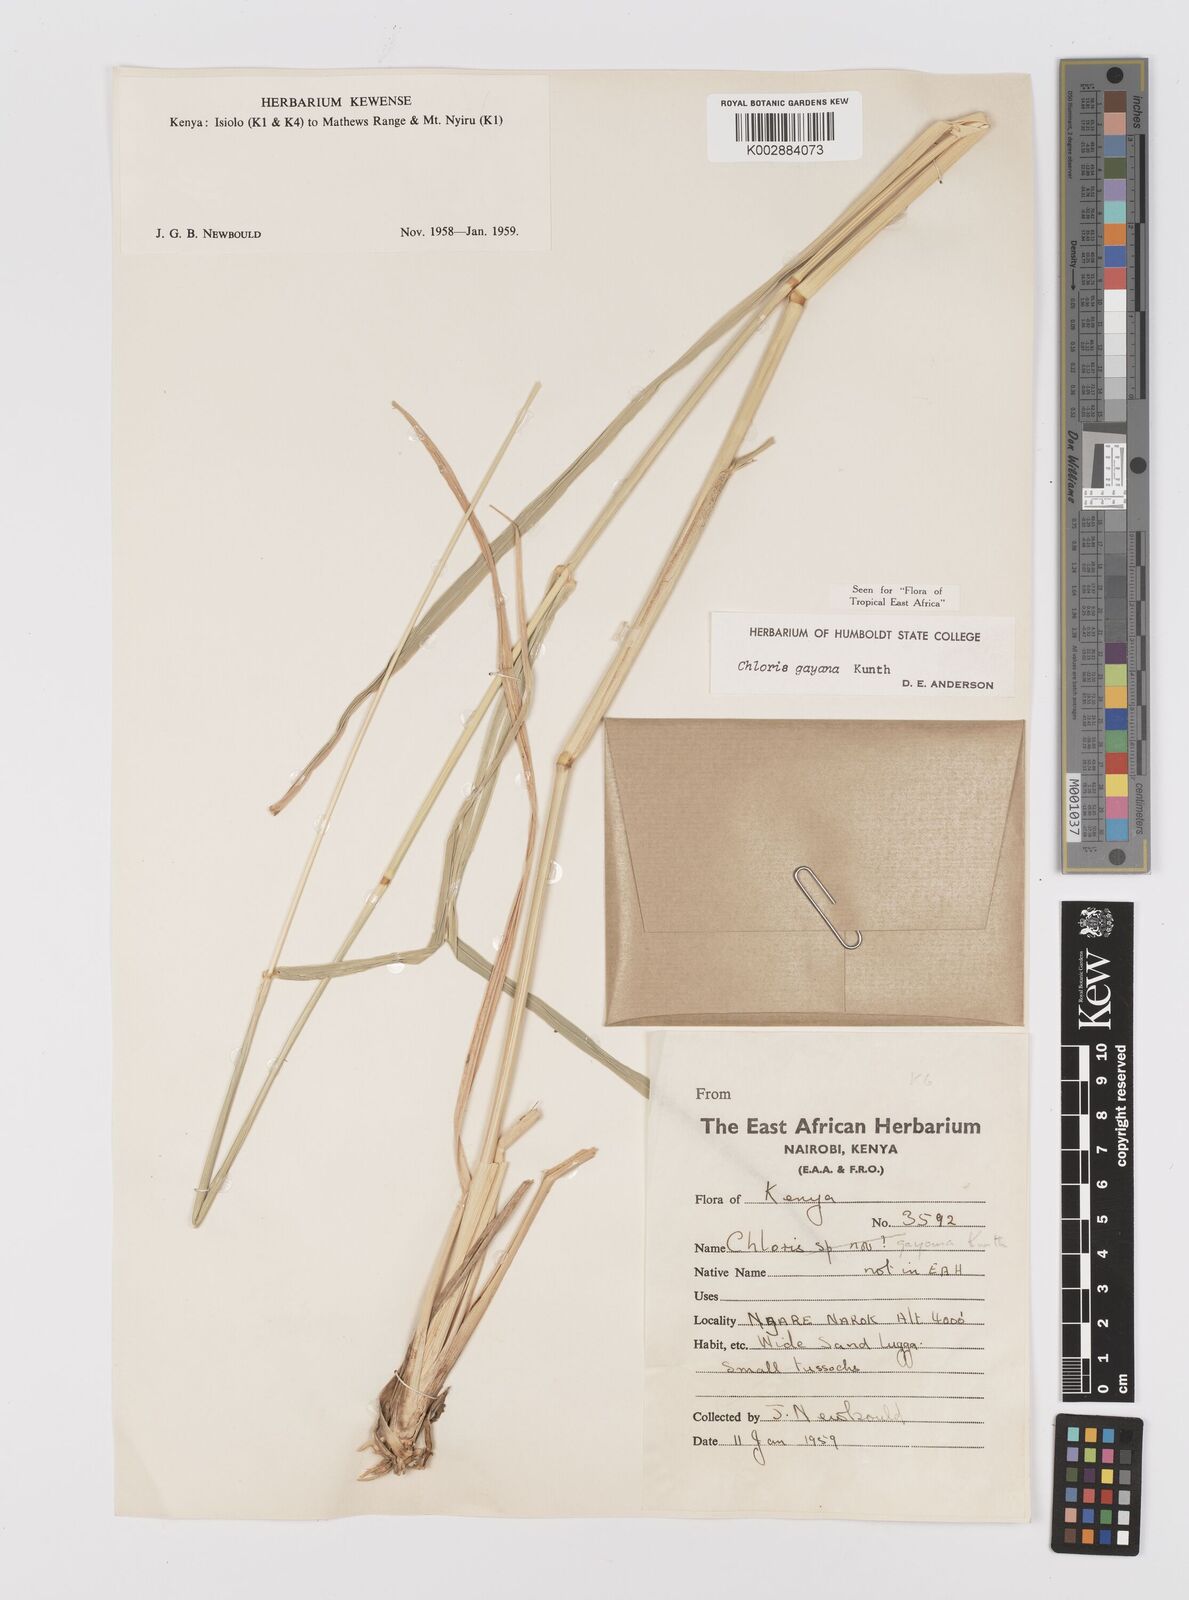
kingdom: Plantae
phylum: Tracheophyta
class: Liliopsida
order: Poales
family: Poaceae
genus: Chloris
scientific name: Chloris gayana
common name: Rhodes grass
